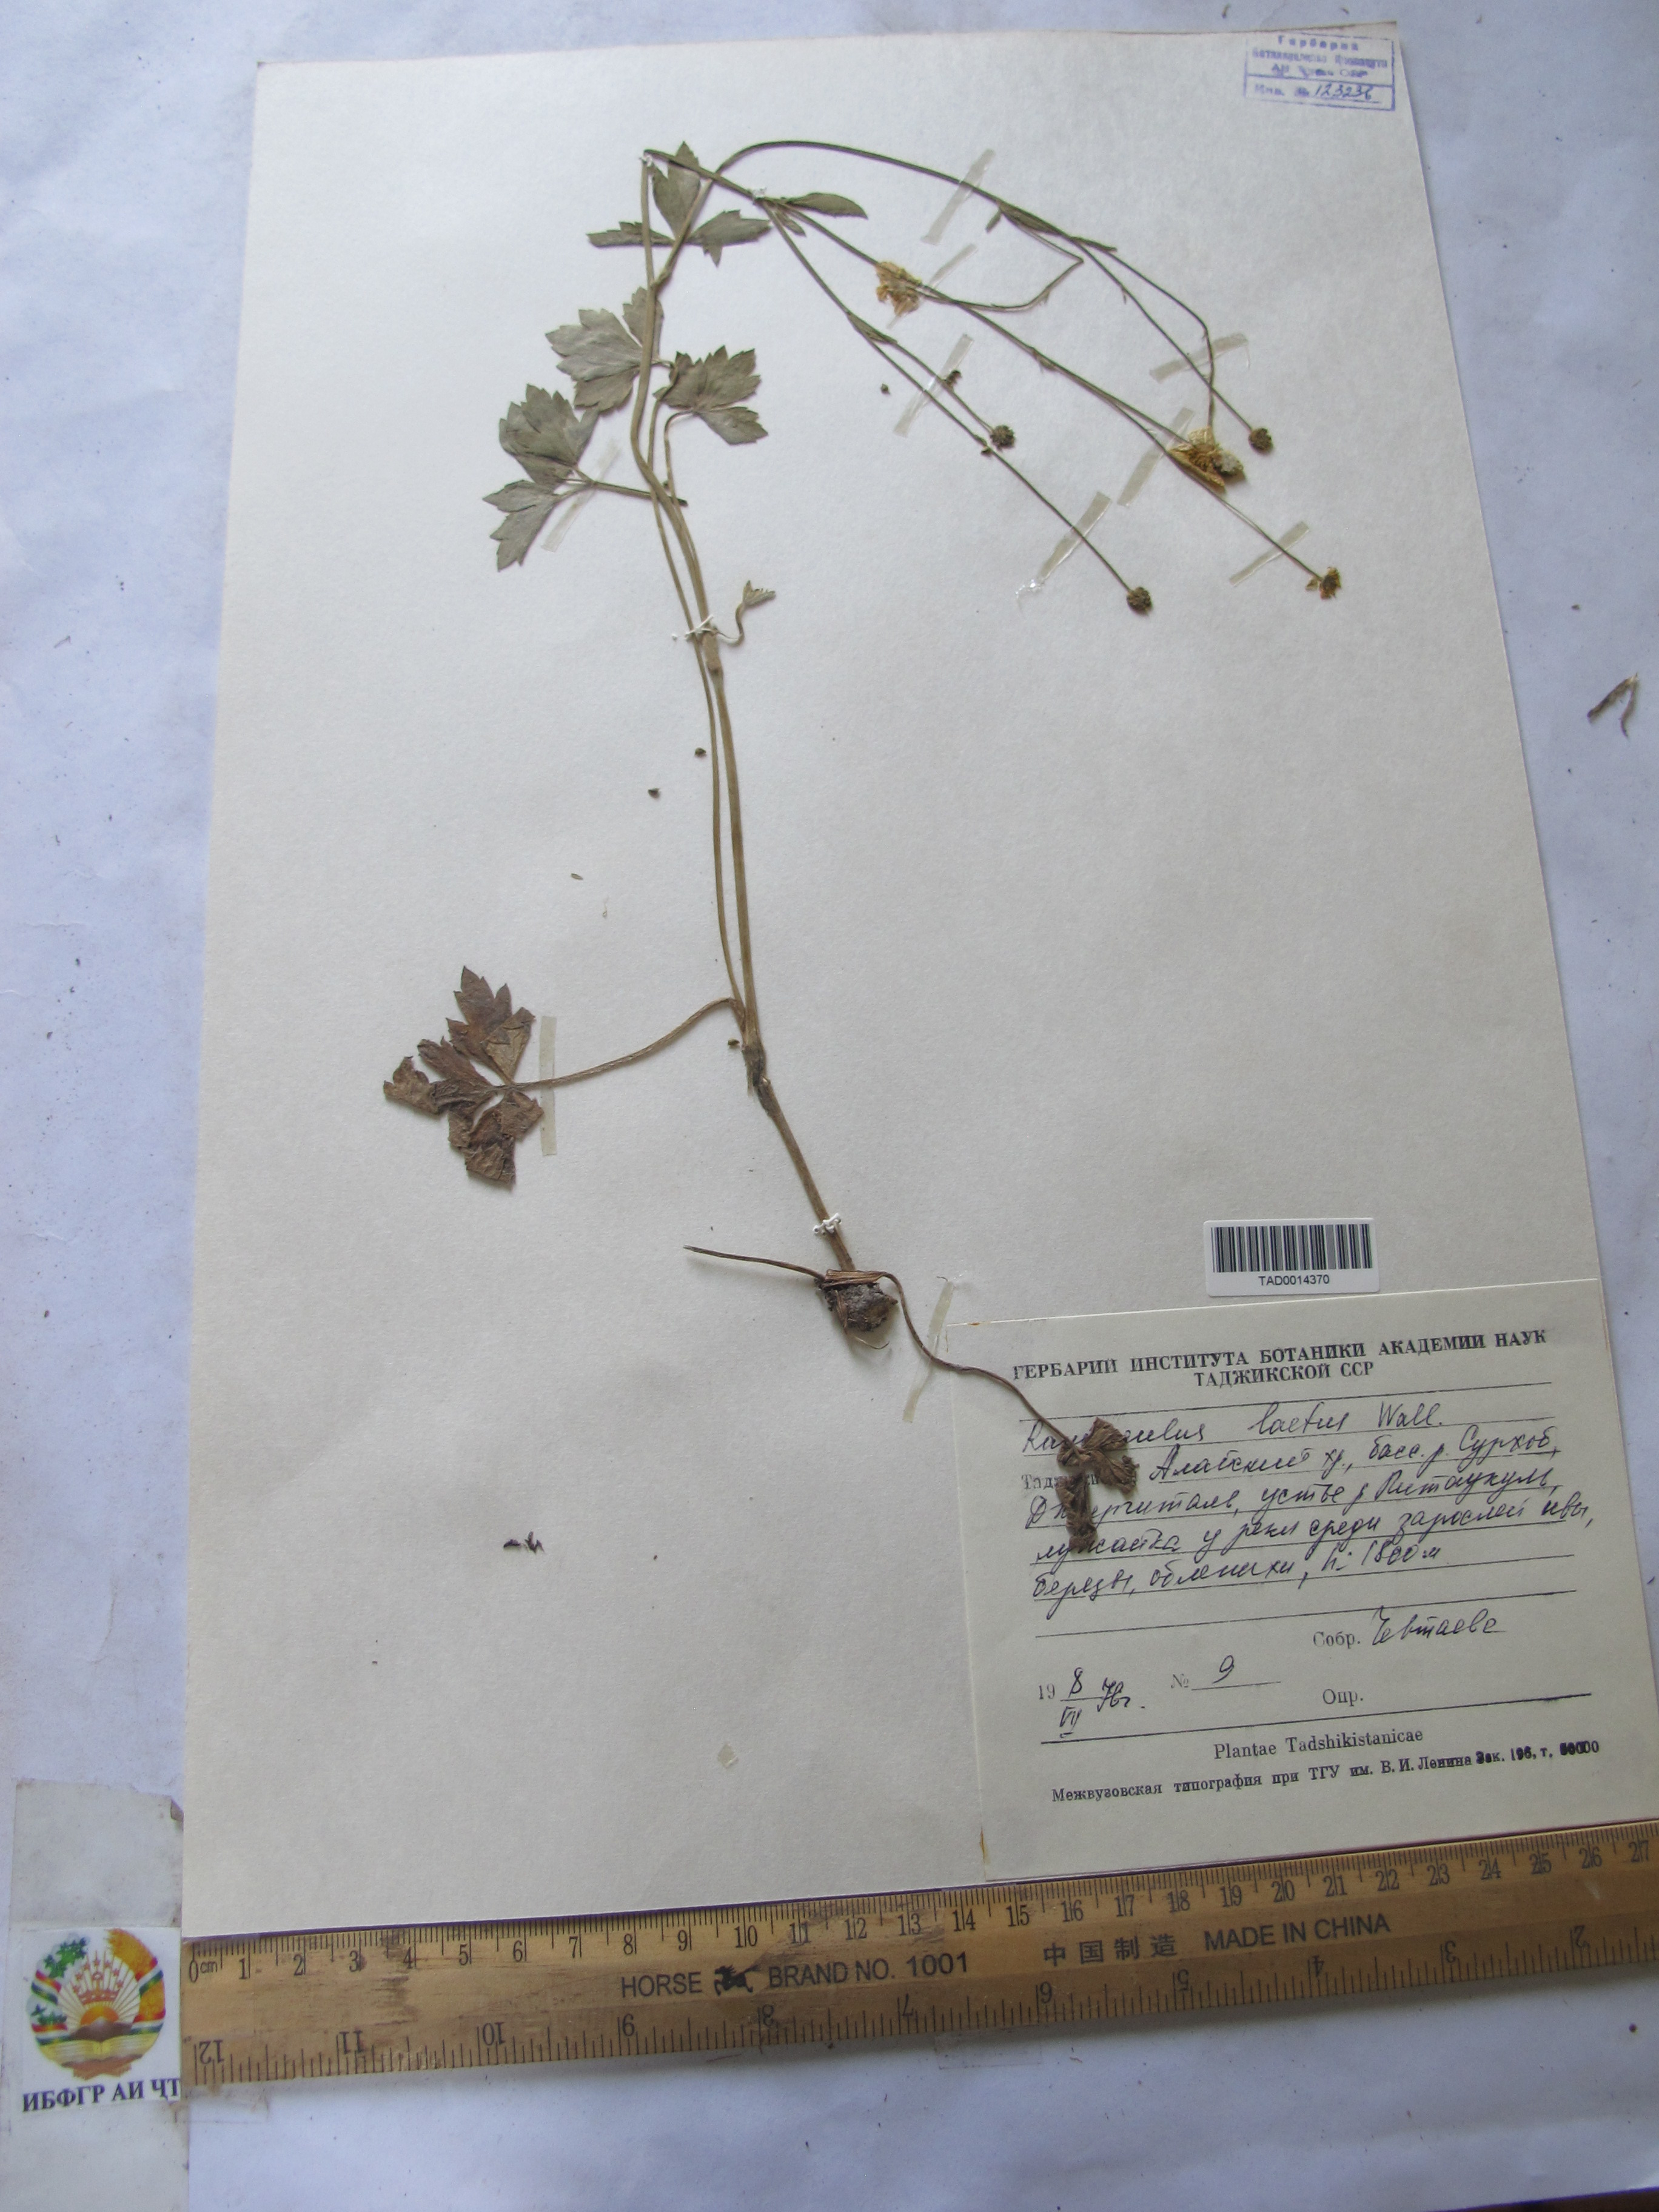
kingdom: Plantae
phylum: Tracheophyta
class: Magnoliopsida
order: Ranunculales
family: Ranunculaceae
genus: Ranunculus
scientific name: Ranunculus distans
